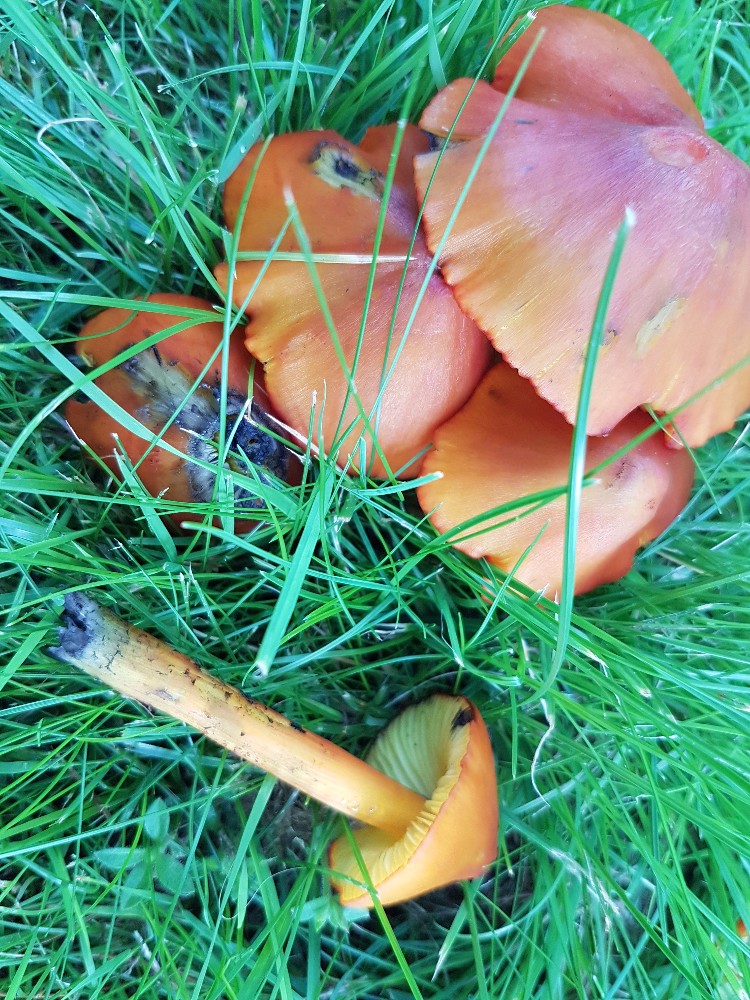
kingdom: Fungi
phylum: Basidiomycota
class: Agaricomycetes
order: Agaricales
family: Hygrophoraceae
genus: Hygrocybe
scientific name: Hygrocybe conica
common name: kegle-vokshat
